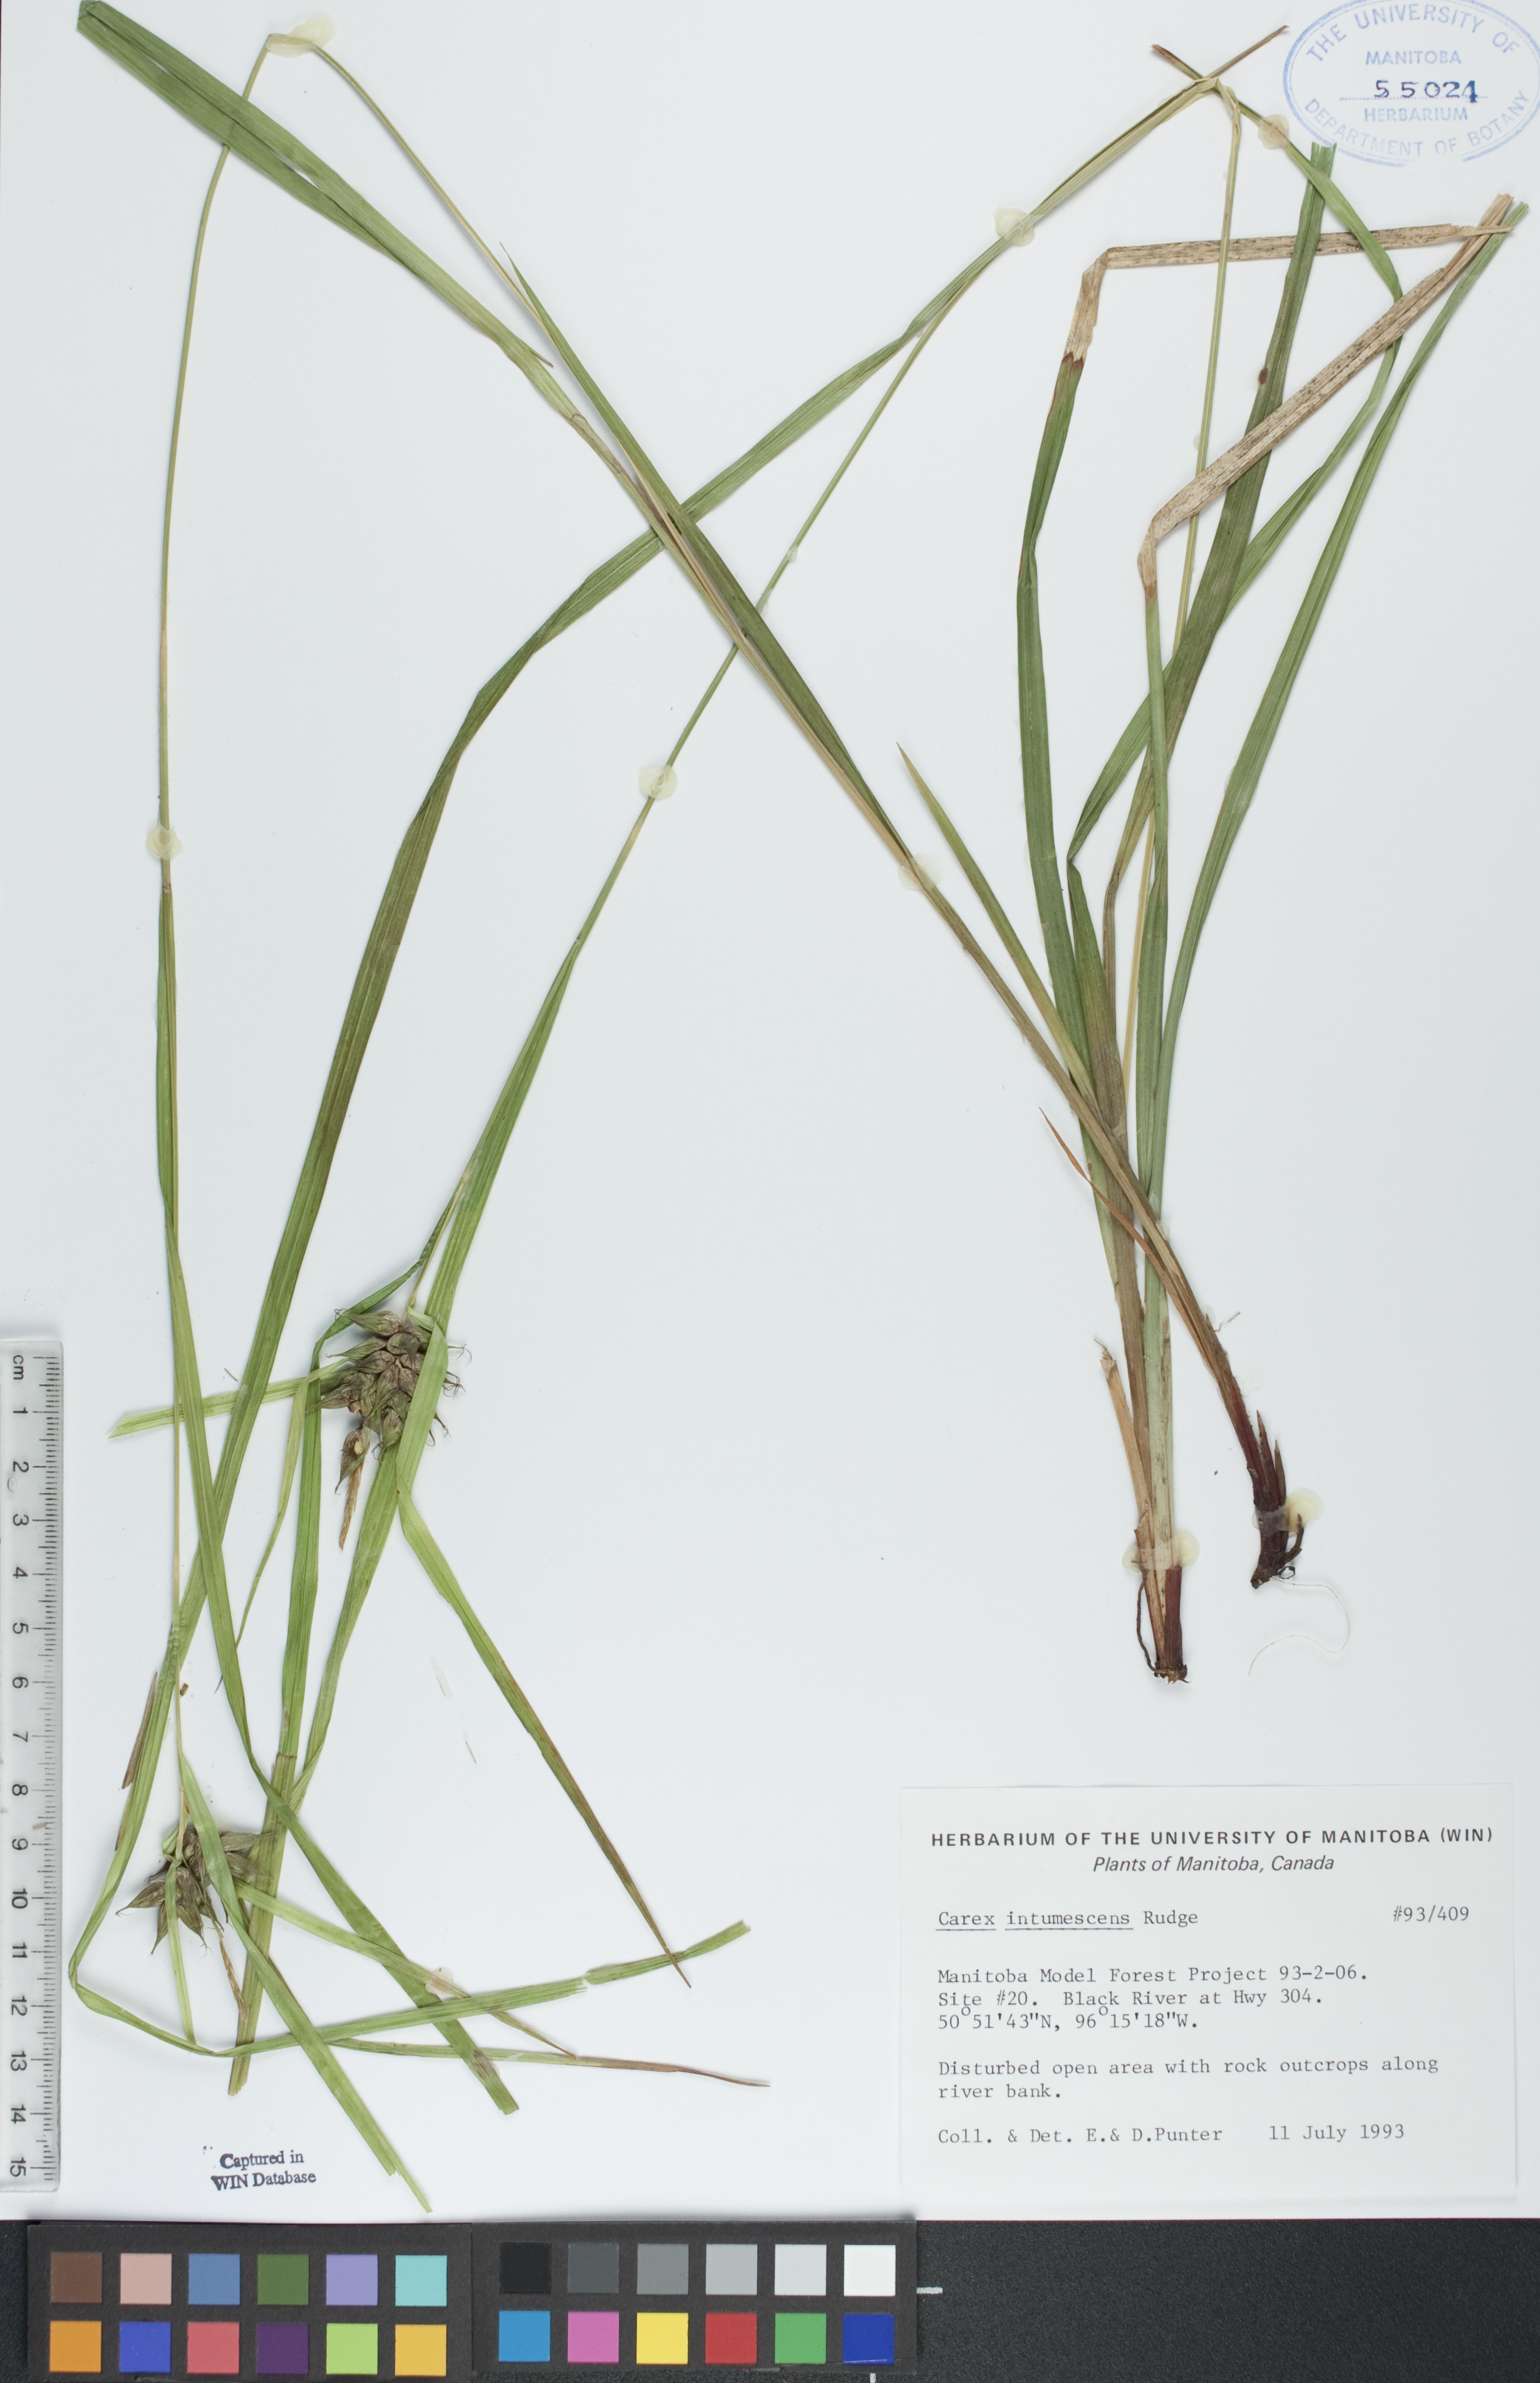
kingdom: Plantae
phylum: Tracheophyta
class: Liliopsida
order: Poales
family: Cyperaceae
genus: Carex
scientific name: Carex intumescens
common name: Greater bladder sedge
